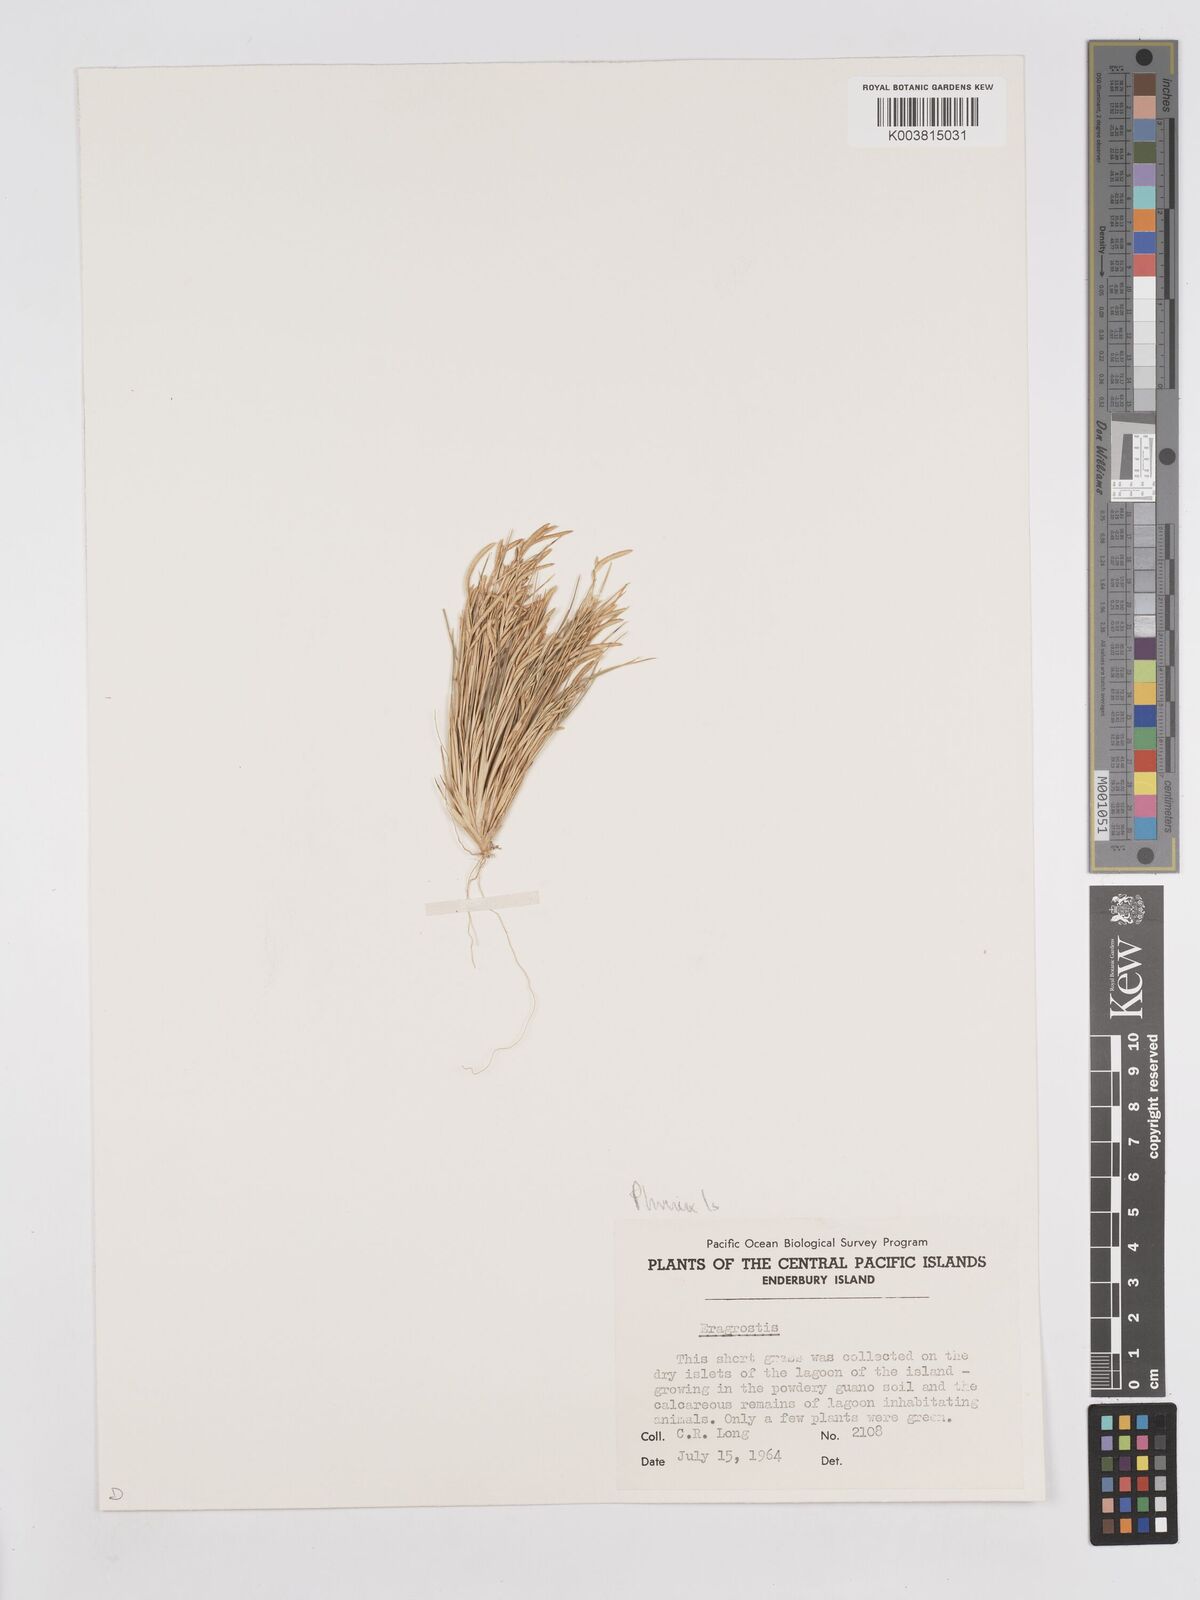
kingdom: Plantae
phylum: Tracheophyta
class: Liliopsida
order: Poales
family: Poaceae
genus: Eragrostis
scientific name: Eragrostis paupera
